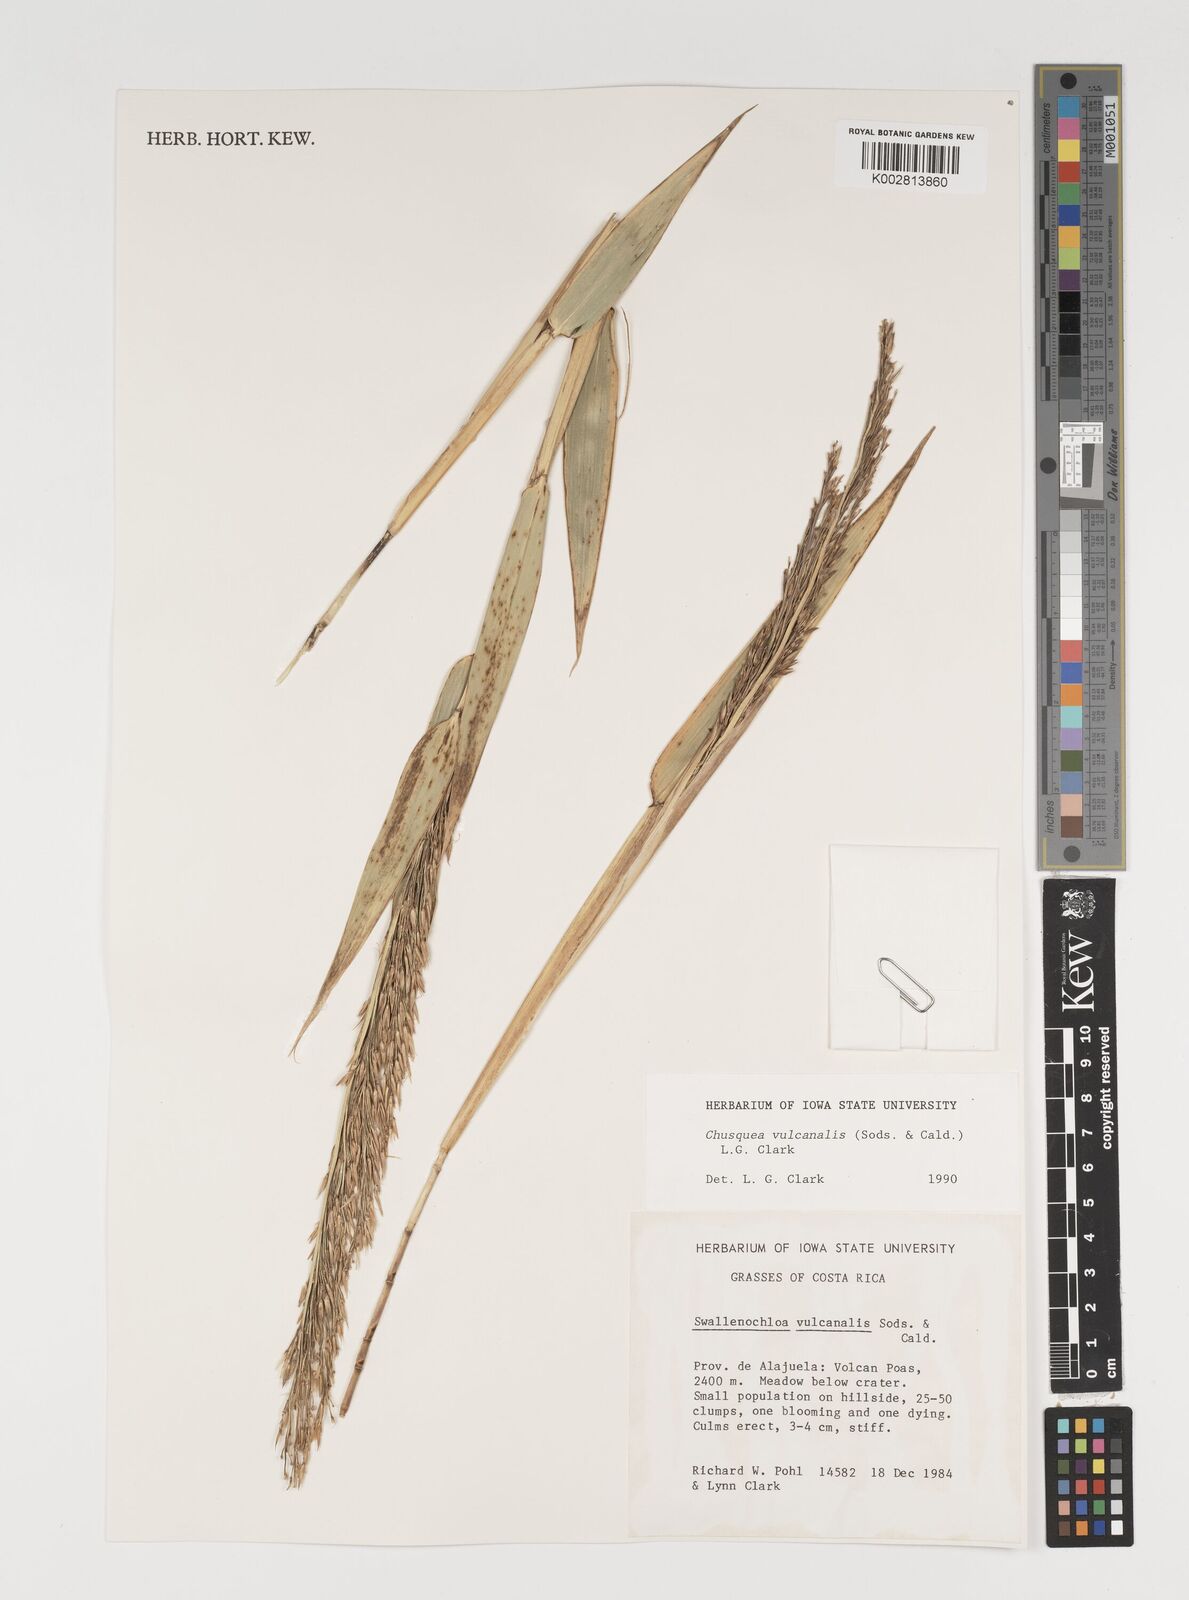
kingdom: Plantae
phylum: Tracheophyta
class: Liliopsida
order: Poales
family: Poaceae
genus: Chusquea
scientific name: Chusquea vulcanalis
